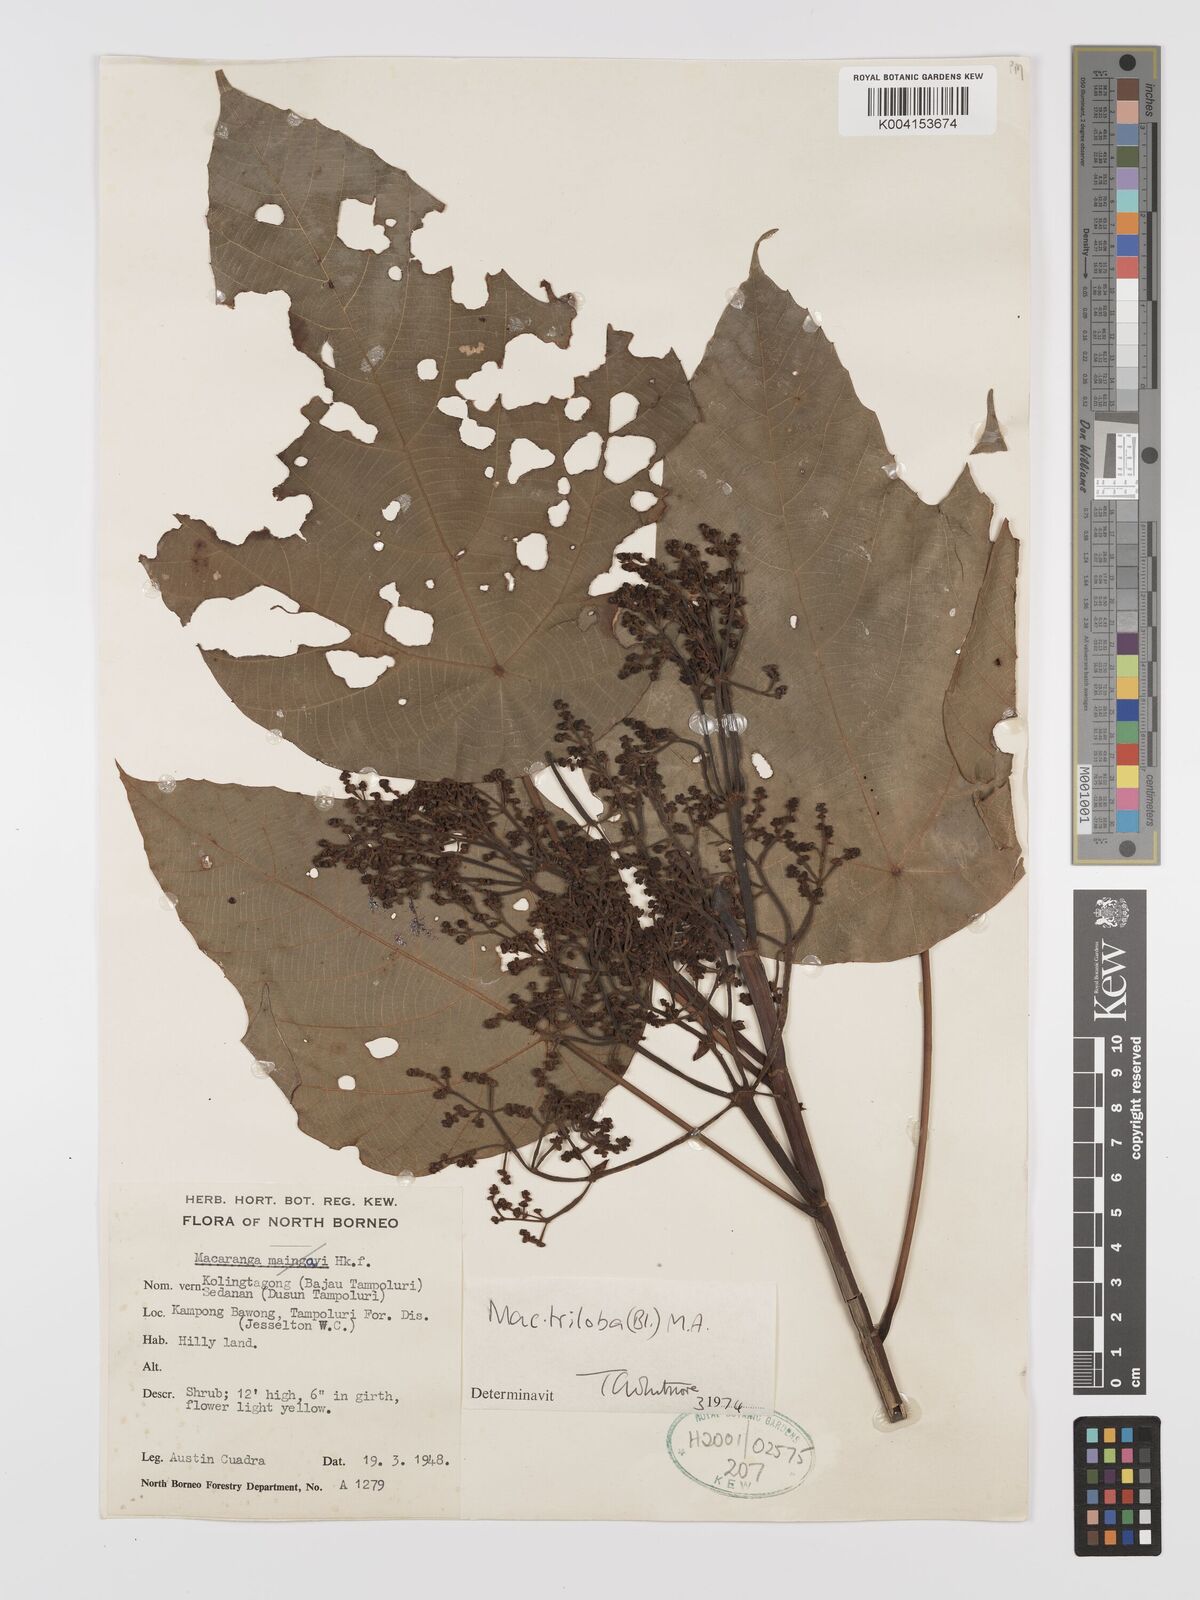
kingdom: Plantae
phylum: Tracheophyta
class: Magnoliopsida
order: Malpighiales
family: Euphorbiaceae
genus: Macaranga
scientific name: Macaranga triloba
